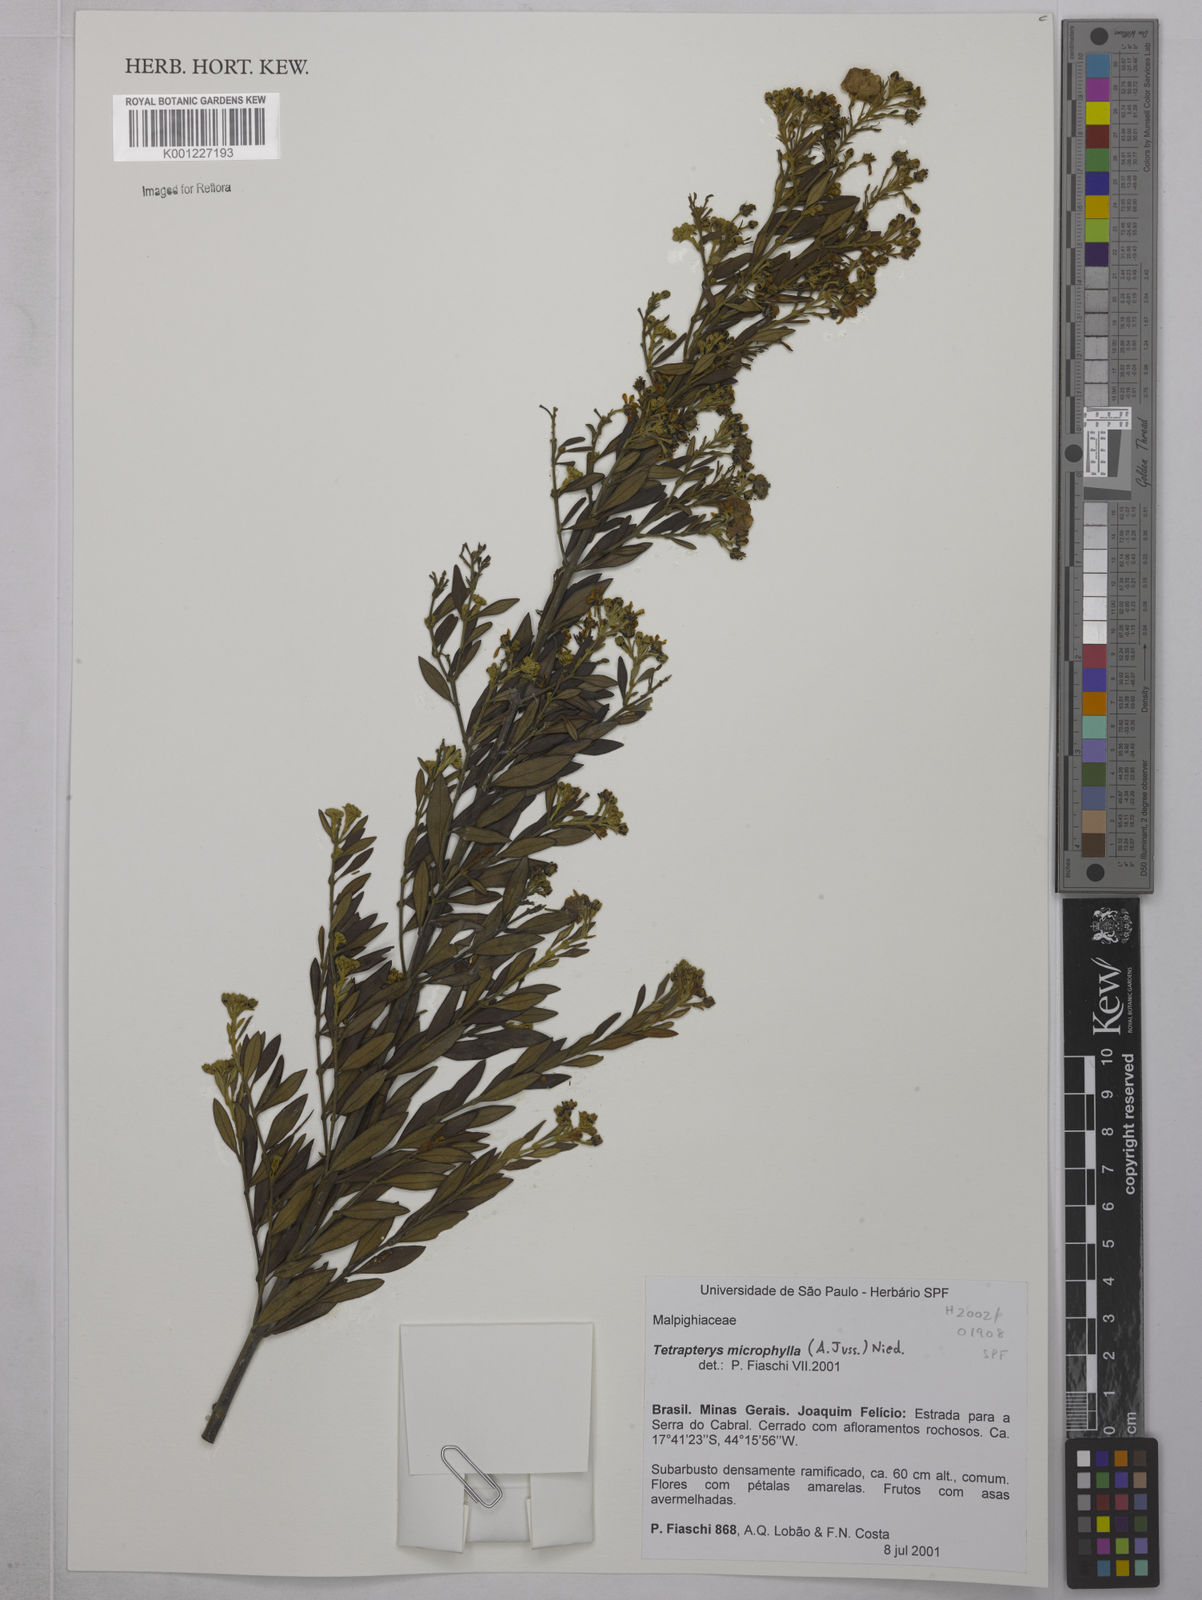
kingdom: Plantae
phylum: Tracheophyta
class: Magnoliopsida
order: Malpighiales
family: Malpighiaceae
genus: Glicophyllum
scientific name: Glicophyllum microphyllum
